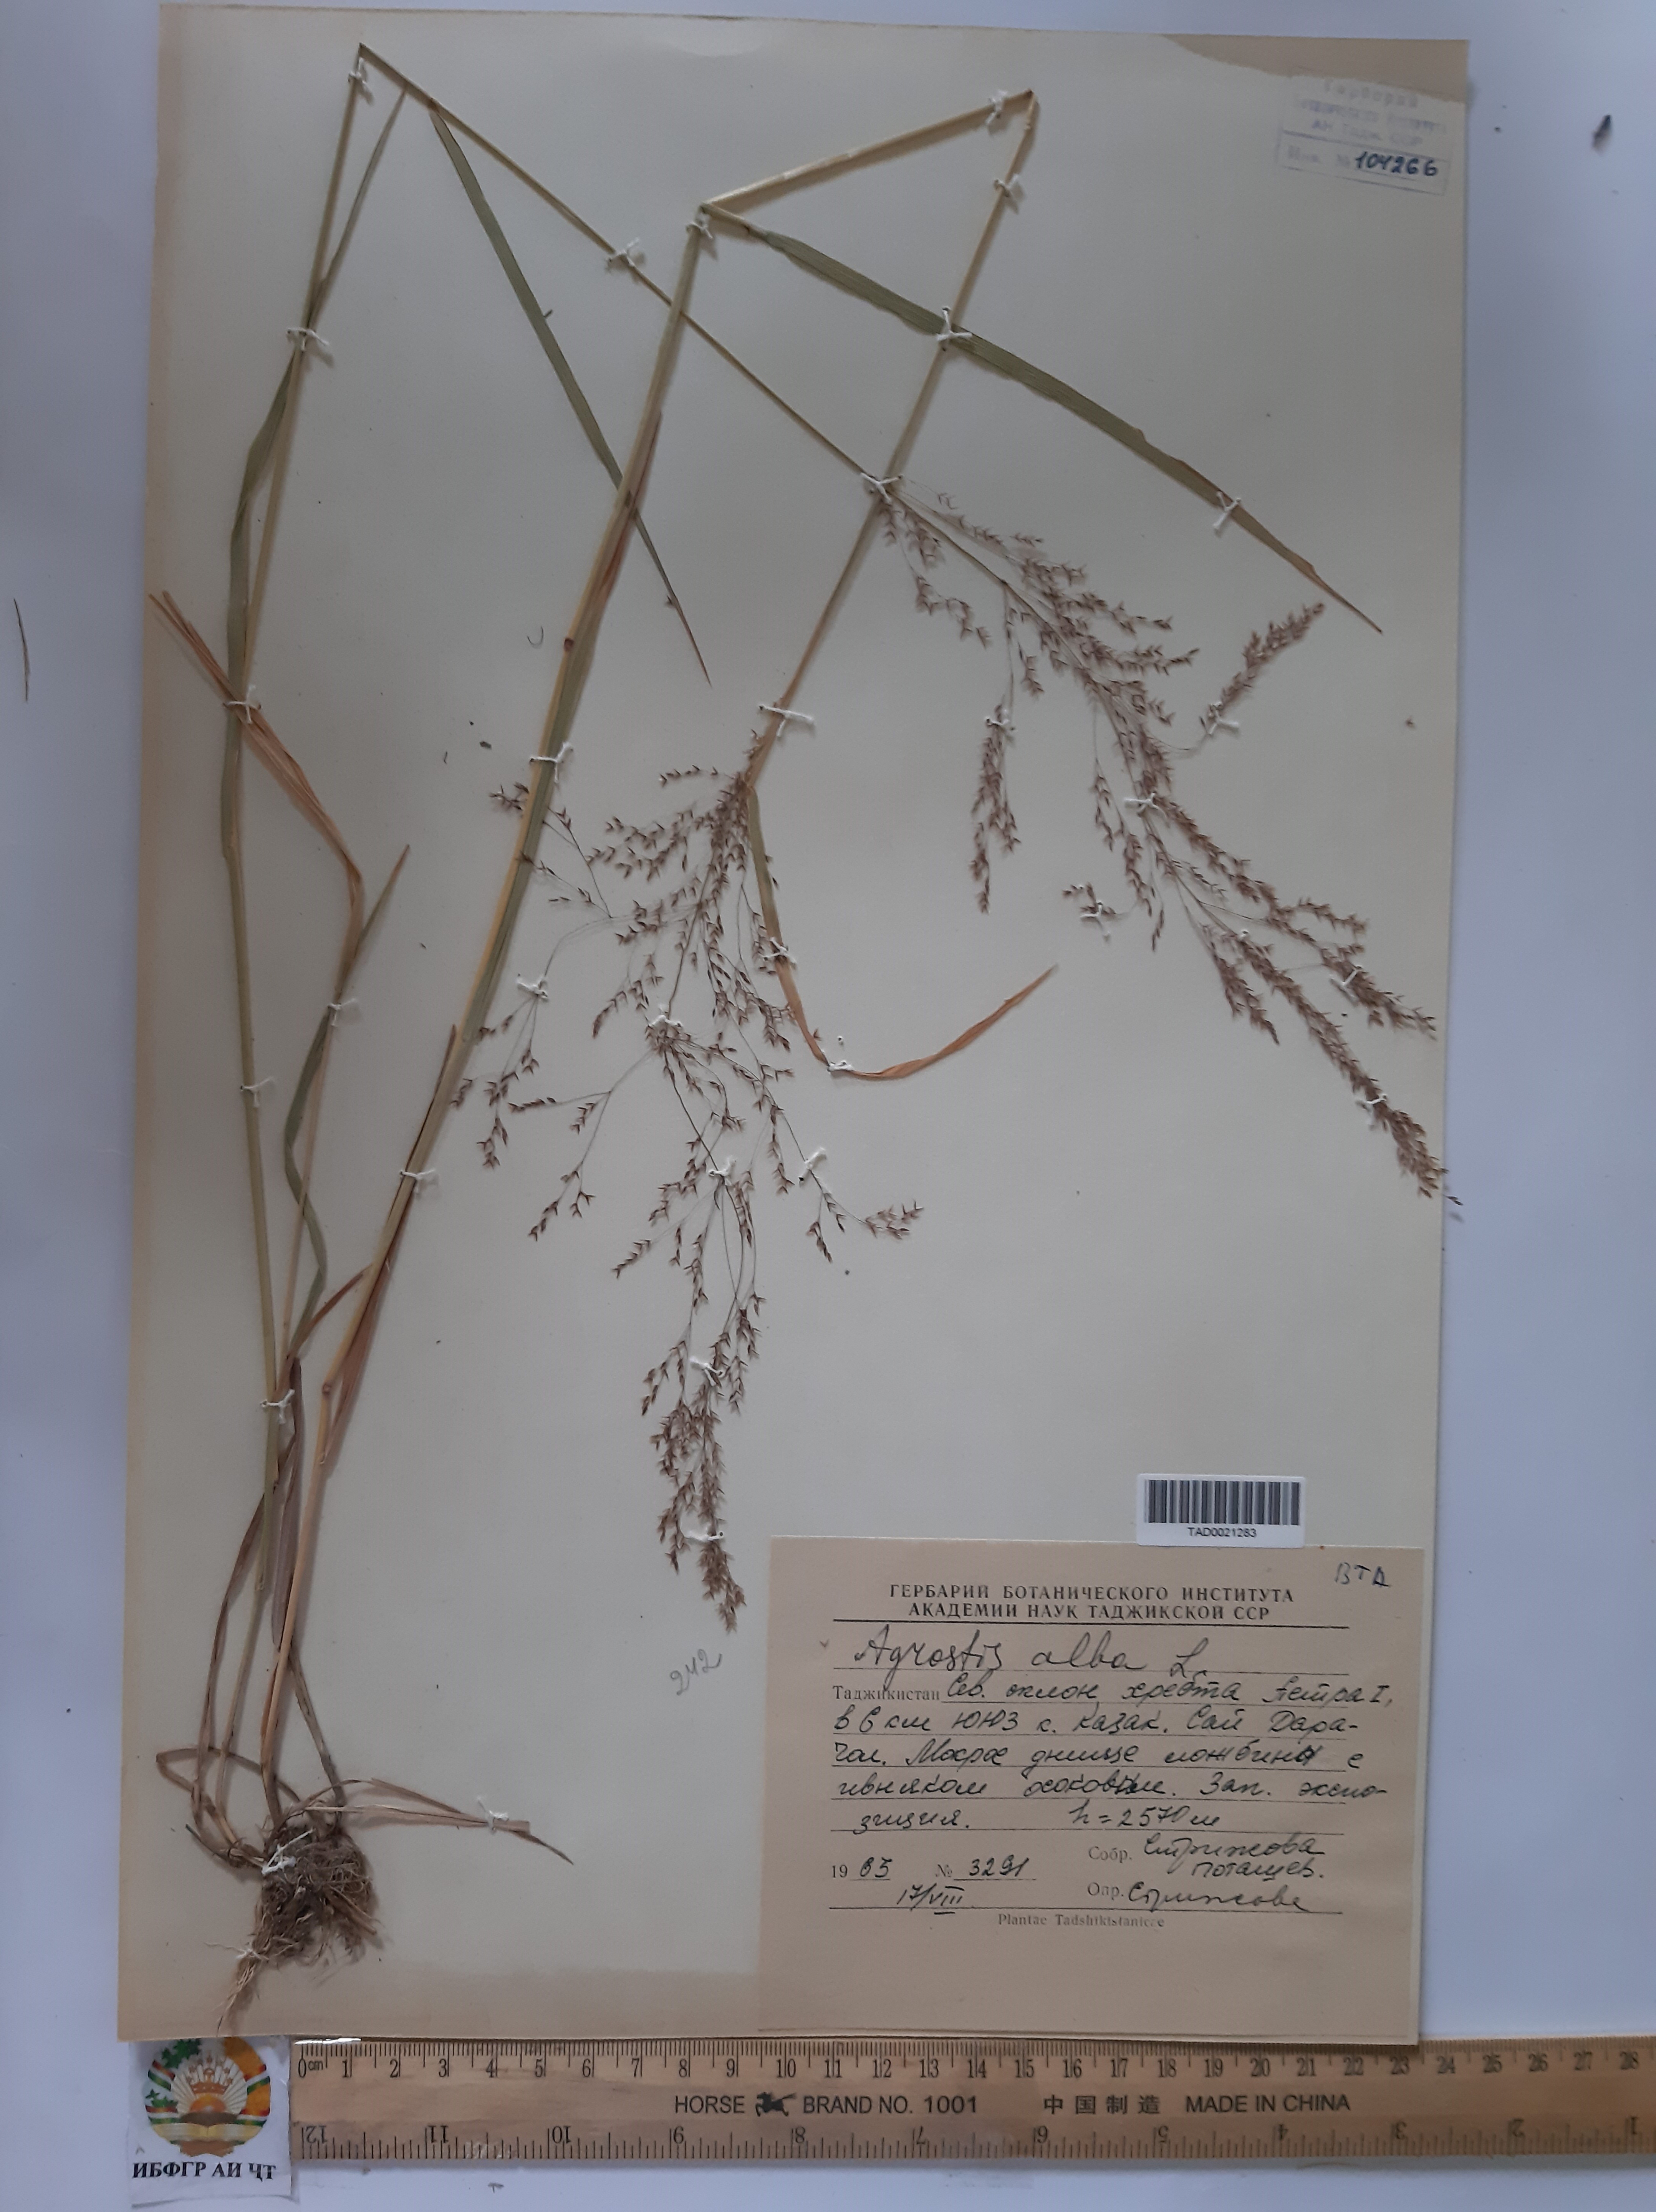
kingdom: Plantae
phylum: Tracheophyta
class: Liliopsida
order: Poales
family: Poaceae
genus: Poa
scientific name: Poa nemoralis
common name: Wood bluegrass
